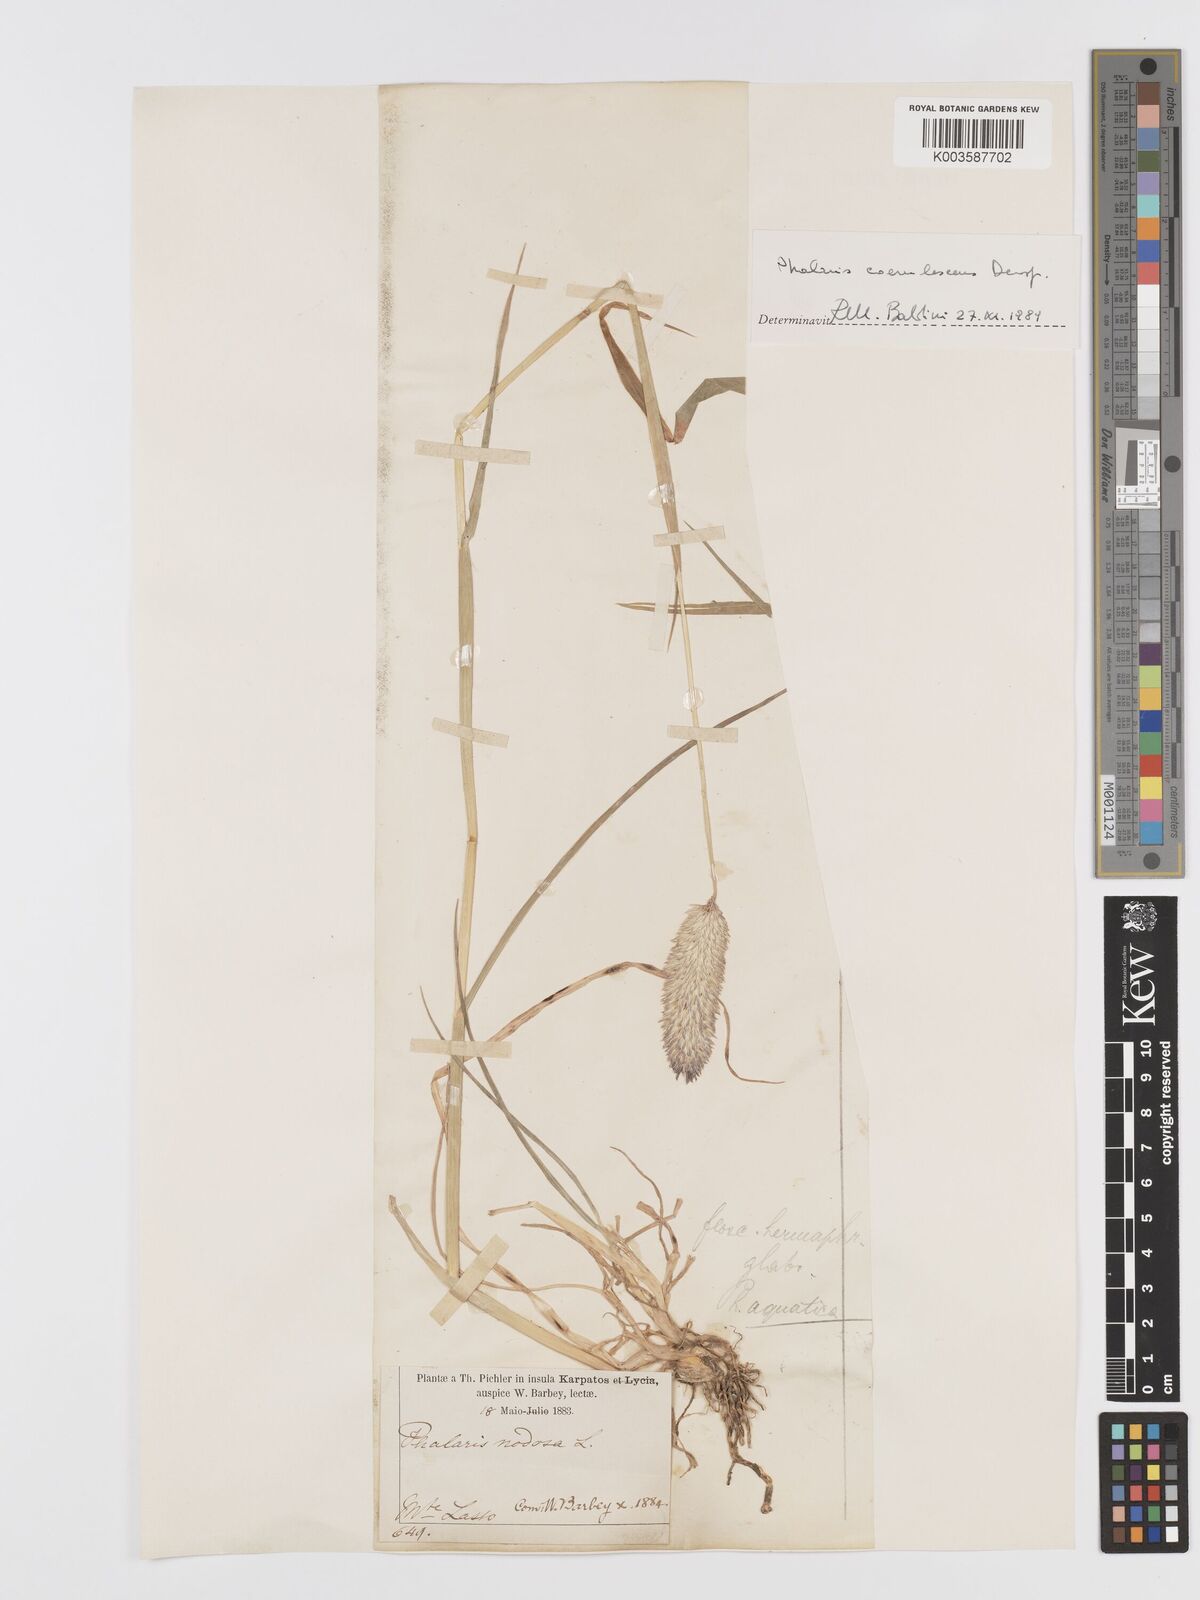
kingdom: Plantae
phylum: Tracheophyta
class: Liliopsida
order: Poales
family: Poaceae
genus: Phalaris
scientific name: Phalaris coerulescens
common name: Sunolgrass
